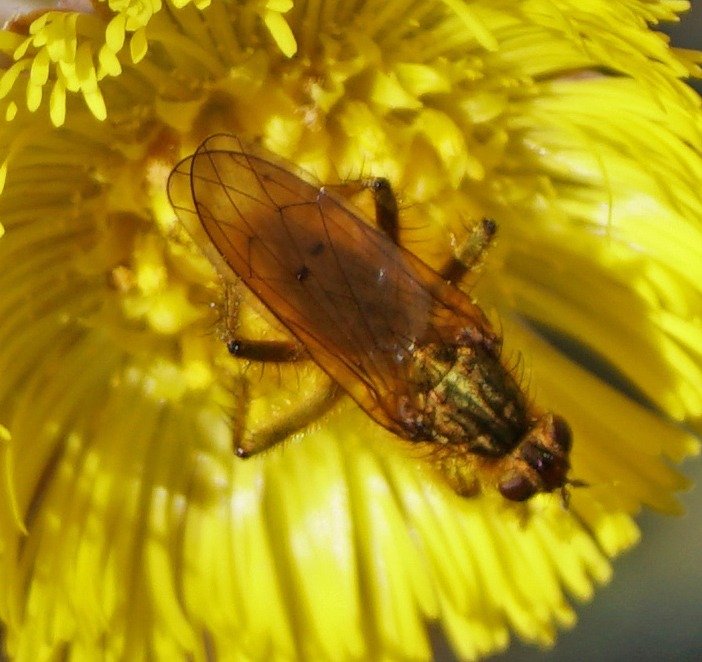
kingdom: Animalia
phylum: Arthropoda
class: Insecta
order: Diptera
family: Scathophagidae
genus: Scathophaga
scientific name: Scathophaga stercoraria
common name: Almindelig gødningsflue
